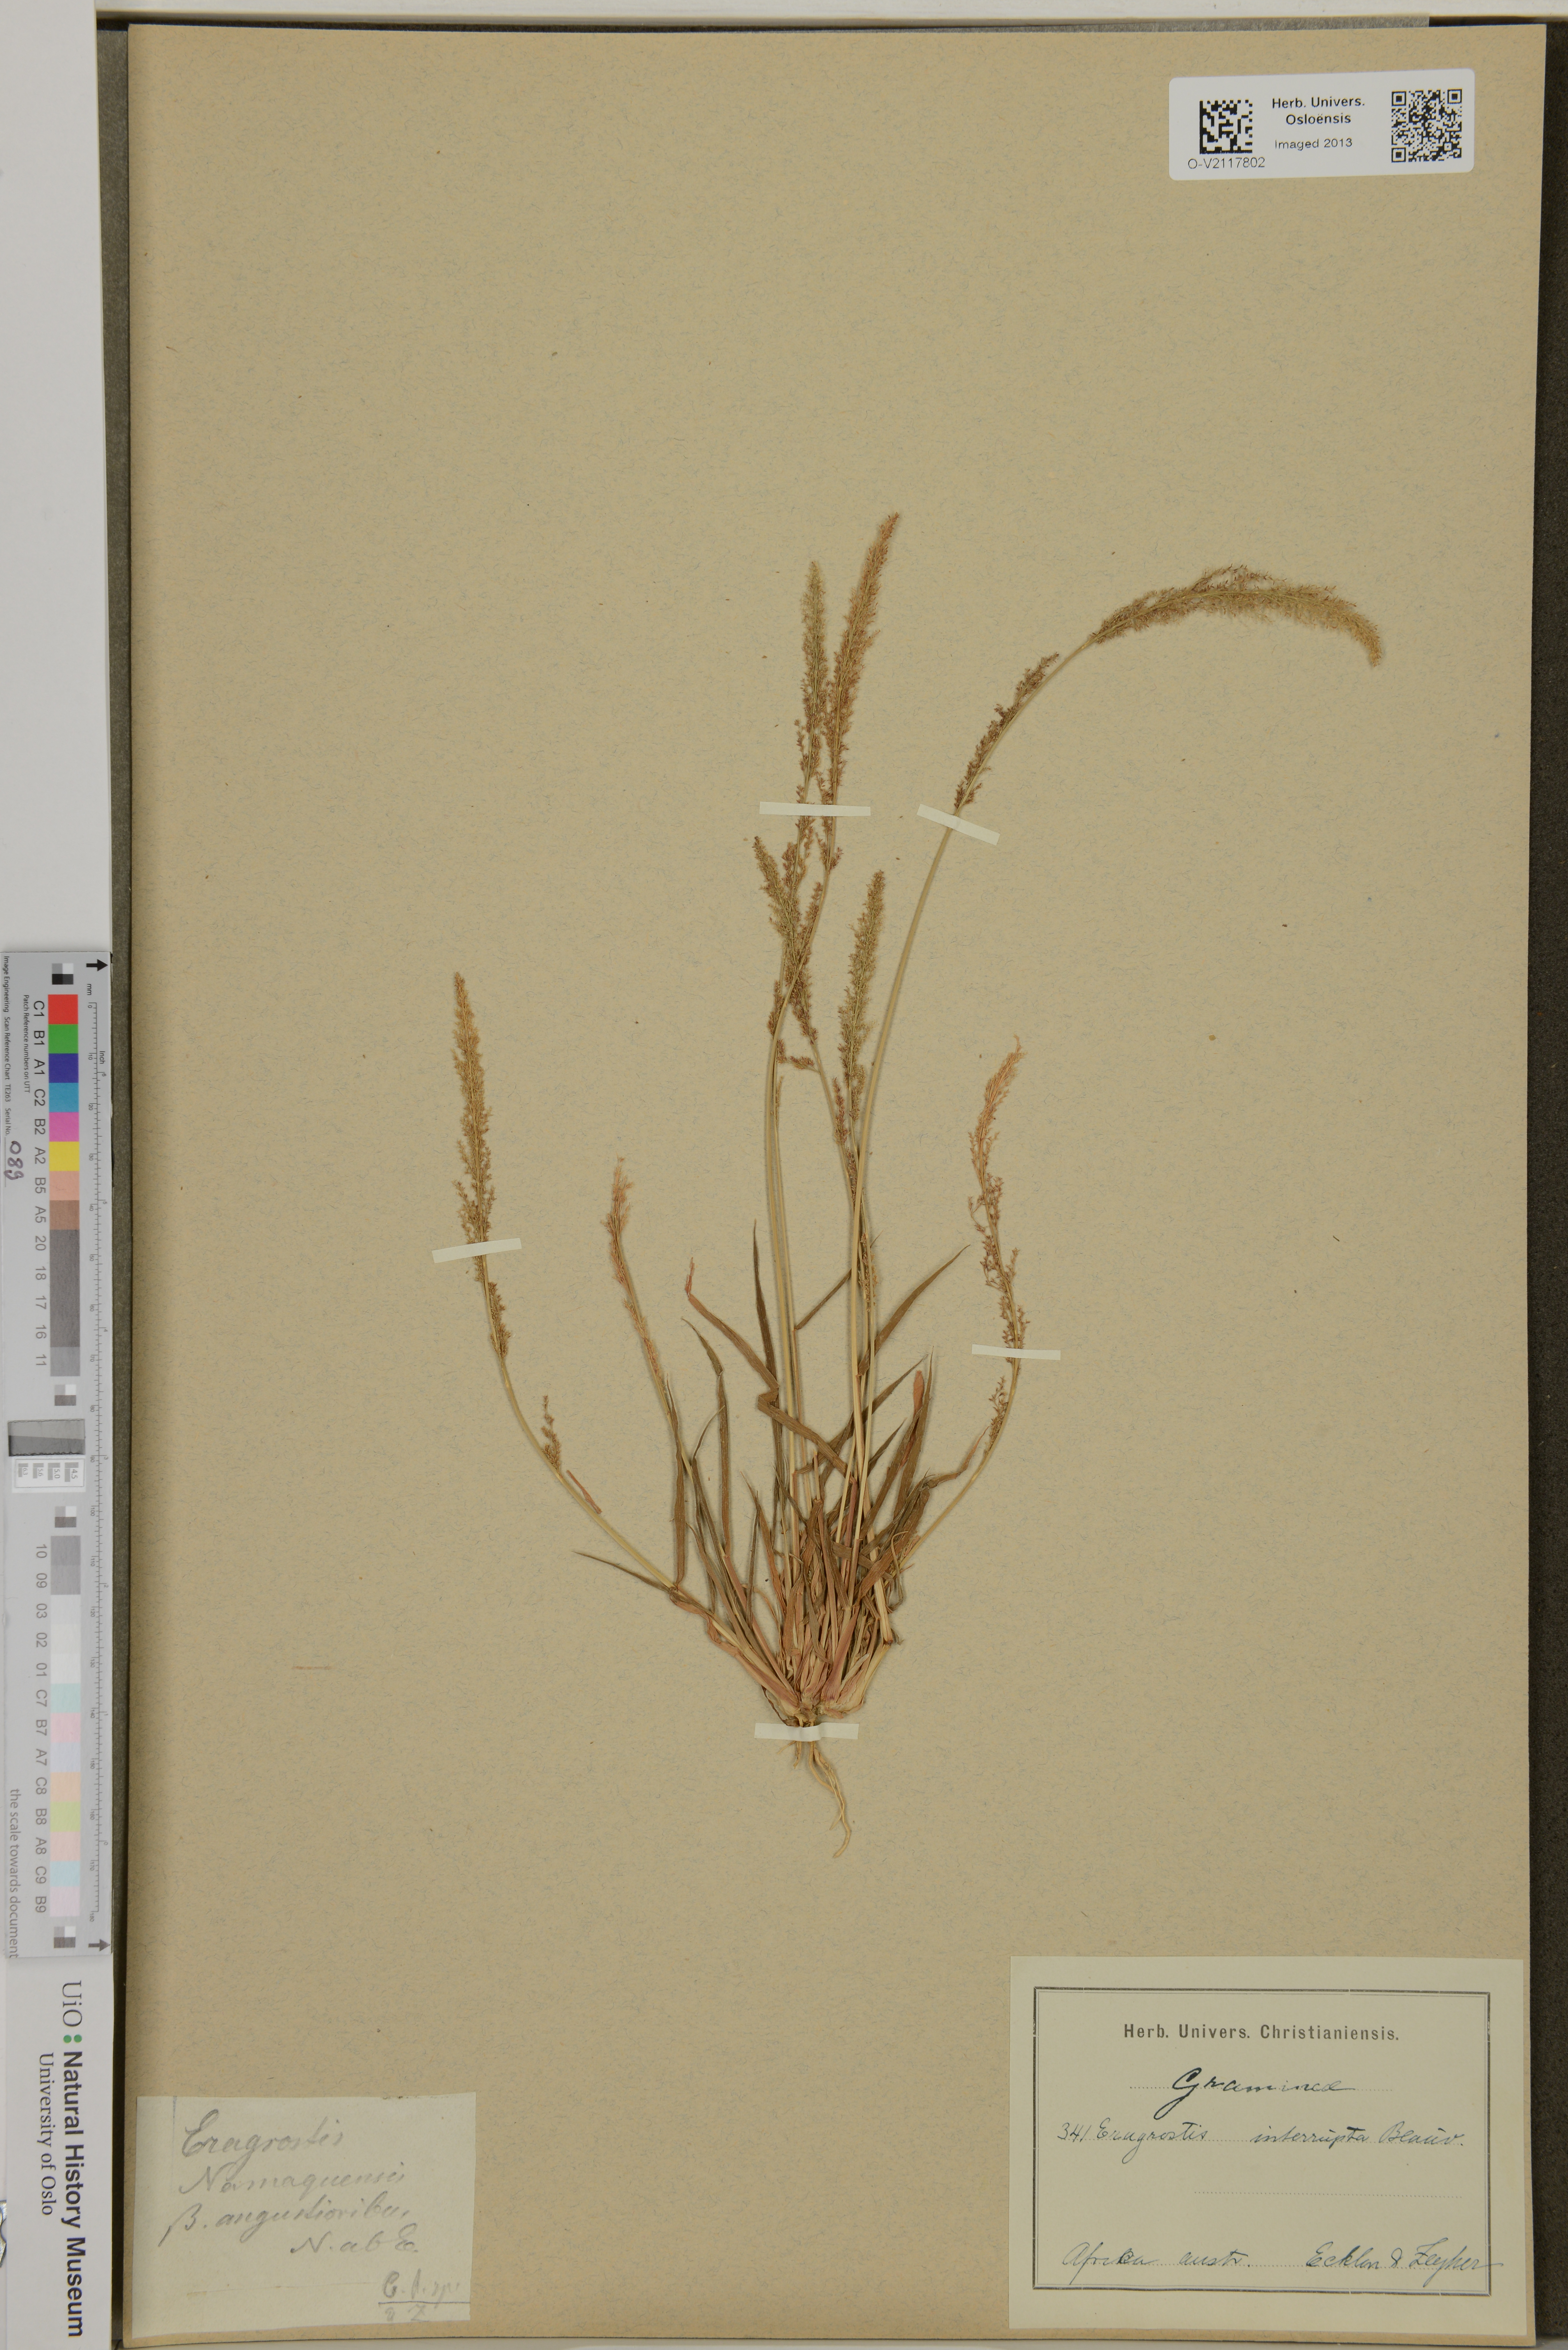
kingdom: Plantae
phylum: Tracheophyta
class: Liliopsida
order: Poales
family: Poaceae
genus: Eragrostis
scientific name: Eragrostis interrupta
